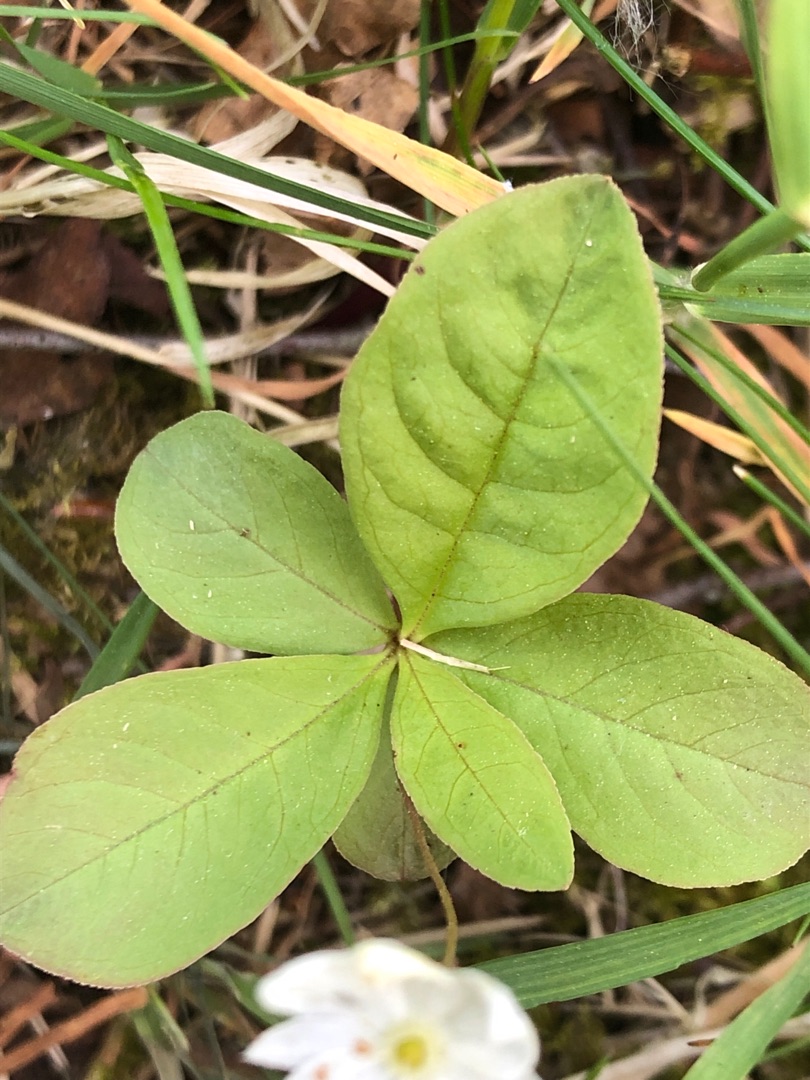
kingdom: Plantae
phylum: Tracheophyta
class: Magnoliopsida
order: Ericales
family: Primulaceae
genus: Lysimachia
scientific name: Lysimachia europaea
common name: Skovstjerne
